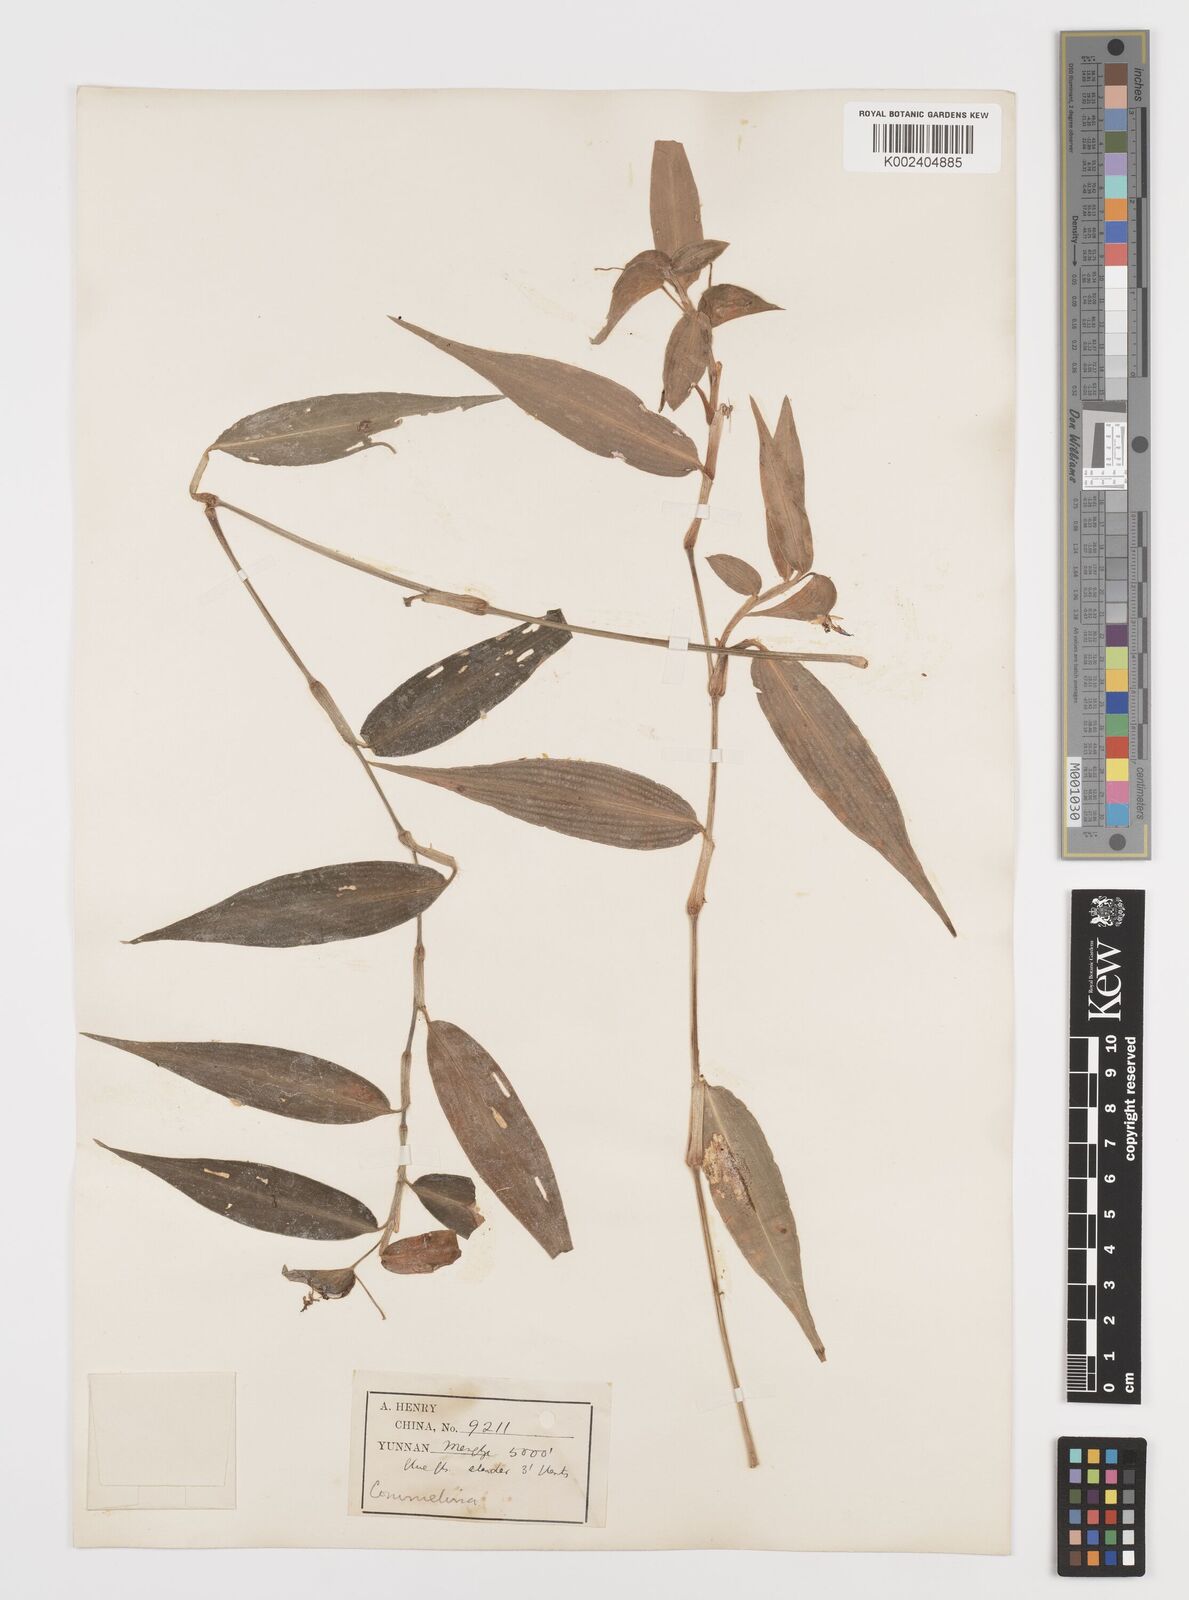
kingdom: Plantae
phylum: Tracheophyta
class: Liliopsida
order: Commelinales
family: Commelinaceae
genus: Commelina
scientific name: Commelina
